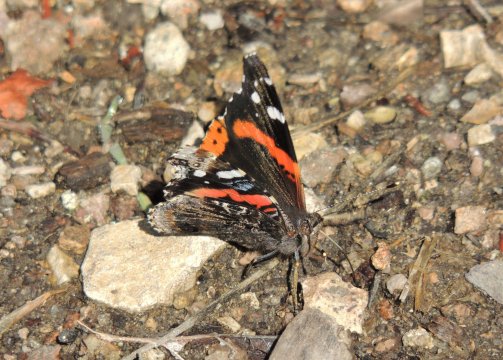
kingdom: Animalia
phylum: Arthropoda
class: Insecta
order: Lepidoptera
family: Nymphalidae
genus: Vanessa
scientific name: Vanessa atalanta
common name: Red Admiral
